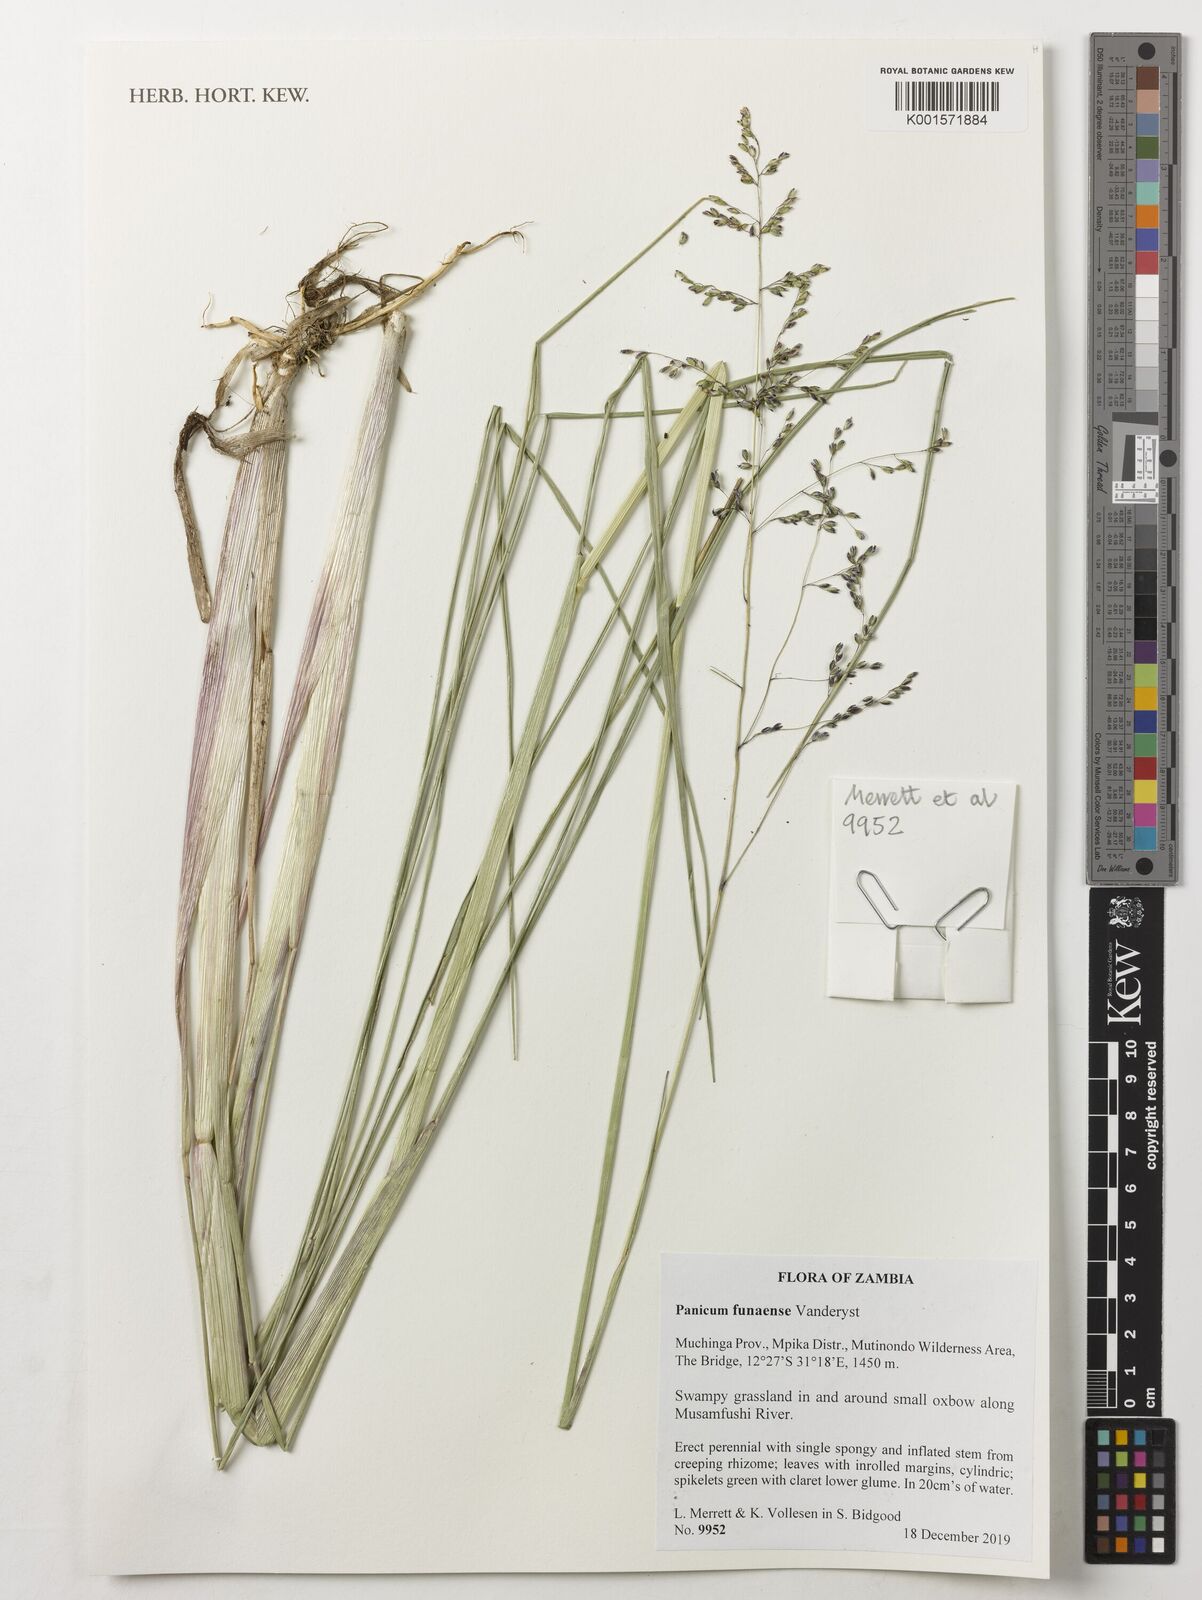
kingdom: Plantae
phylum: Tracheophyta
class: Liliopsida
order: Poales
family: Poaceae
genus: Panicum
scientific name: Panicum spongiosum
